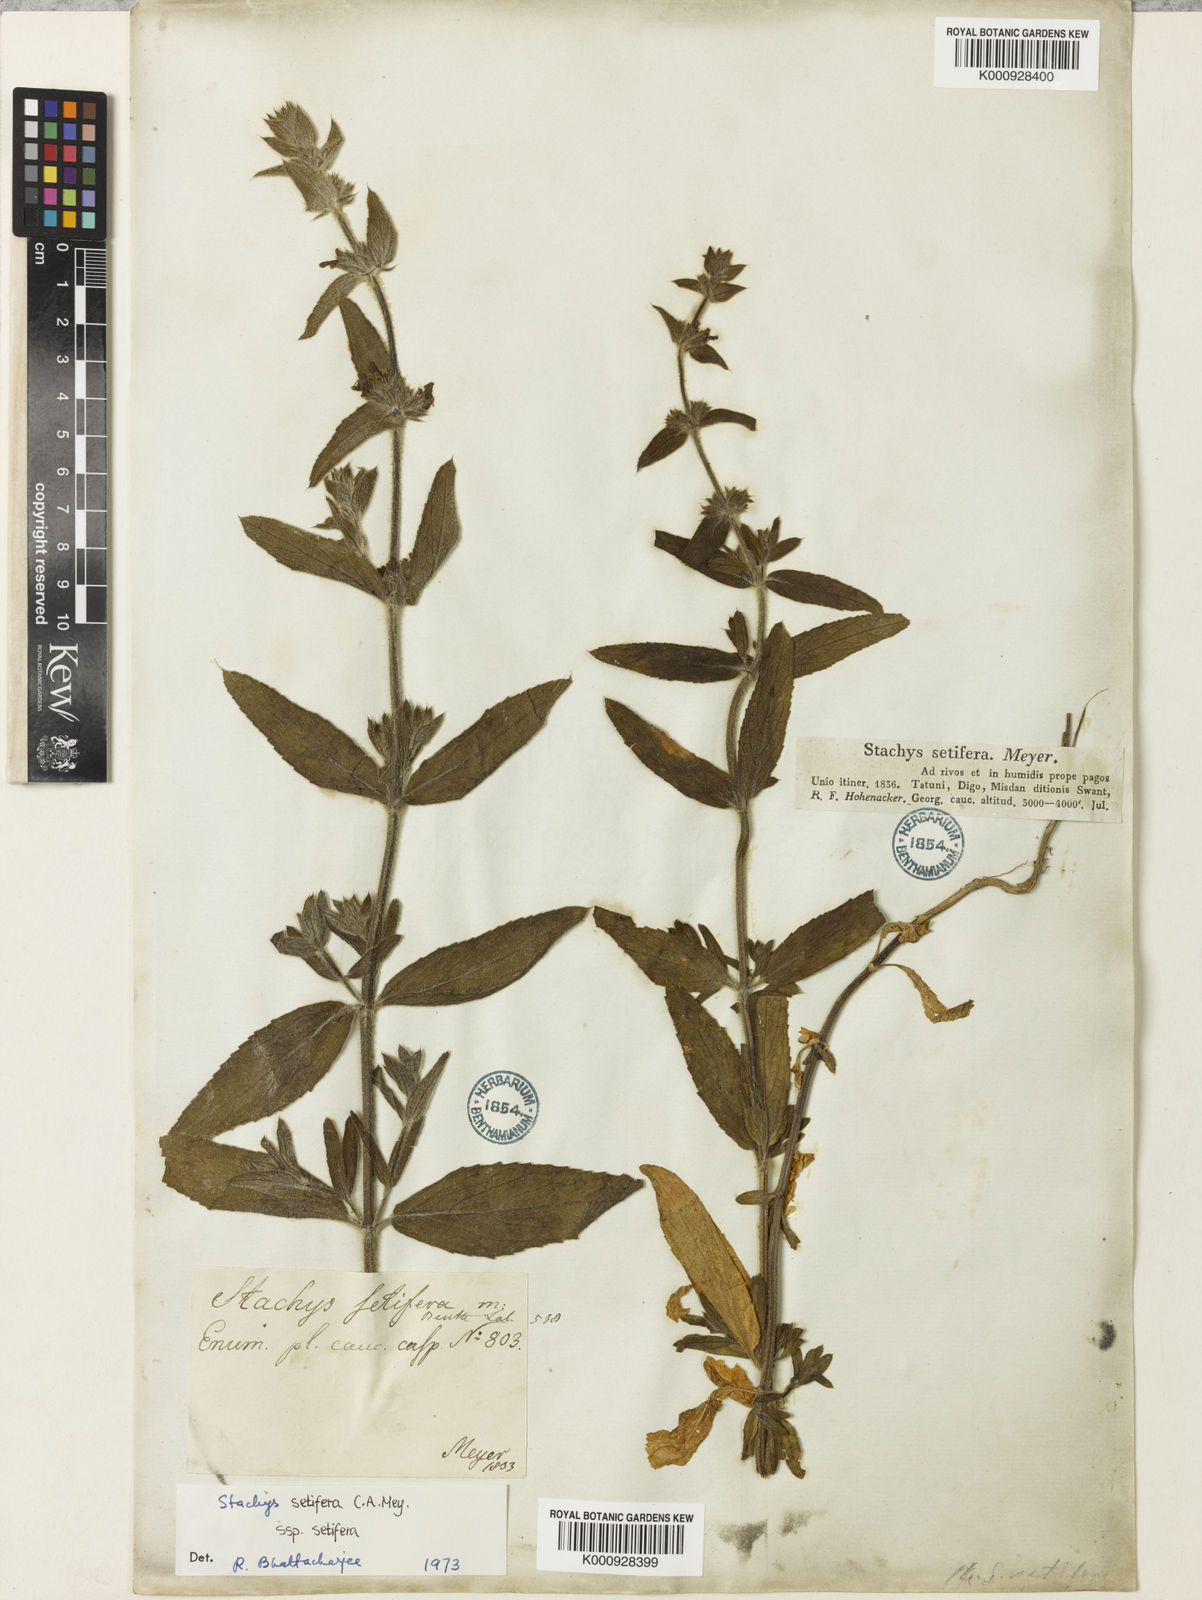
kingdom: Plantae
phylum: Tracheophyta
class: Magnoliopsida
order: Lamiales
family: Lamiaceae
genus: Stachys
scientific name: Stachys setifera
